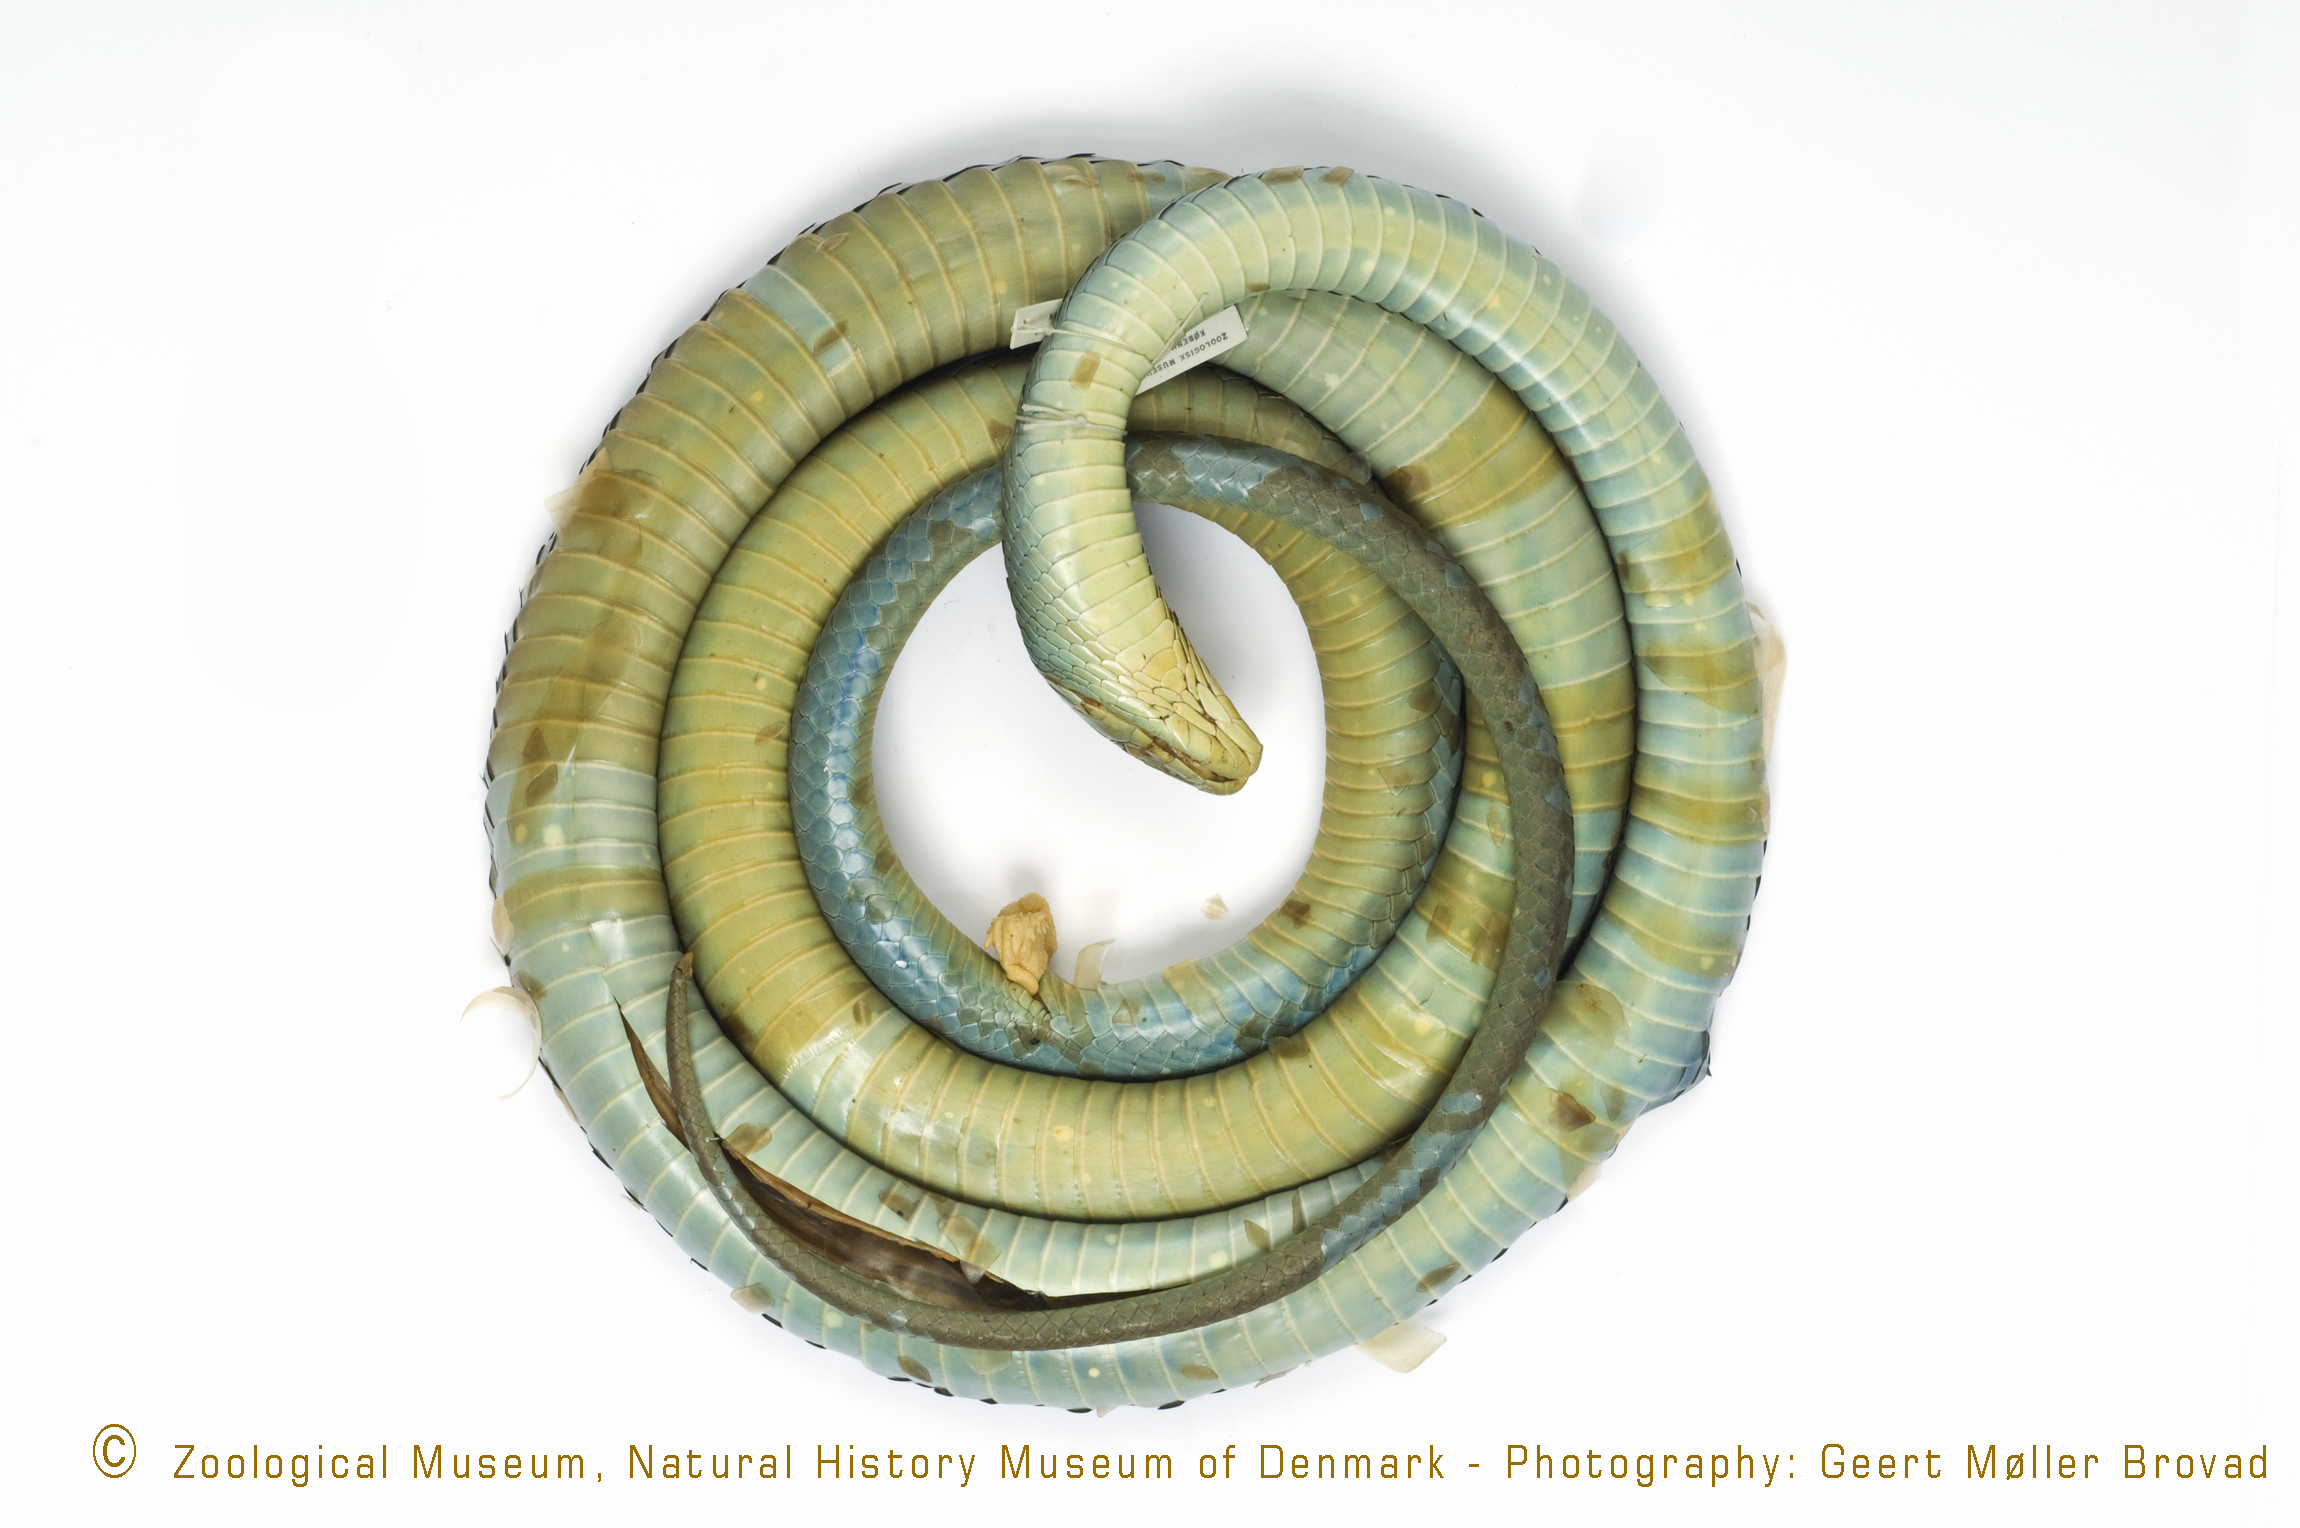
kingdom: Animalia
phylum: Chordata
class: Squamata
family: Elapidae
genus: Dendroaspis
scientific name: Dendroaspis angusticeps
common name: Green mamba
